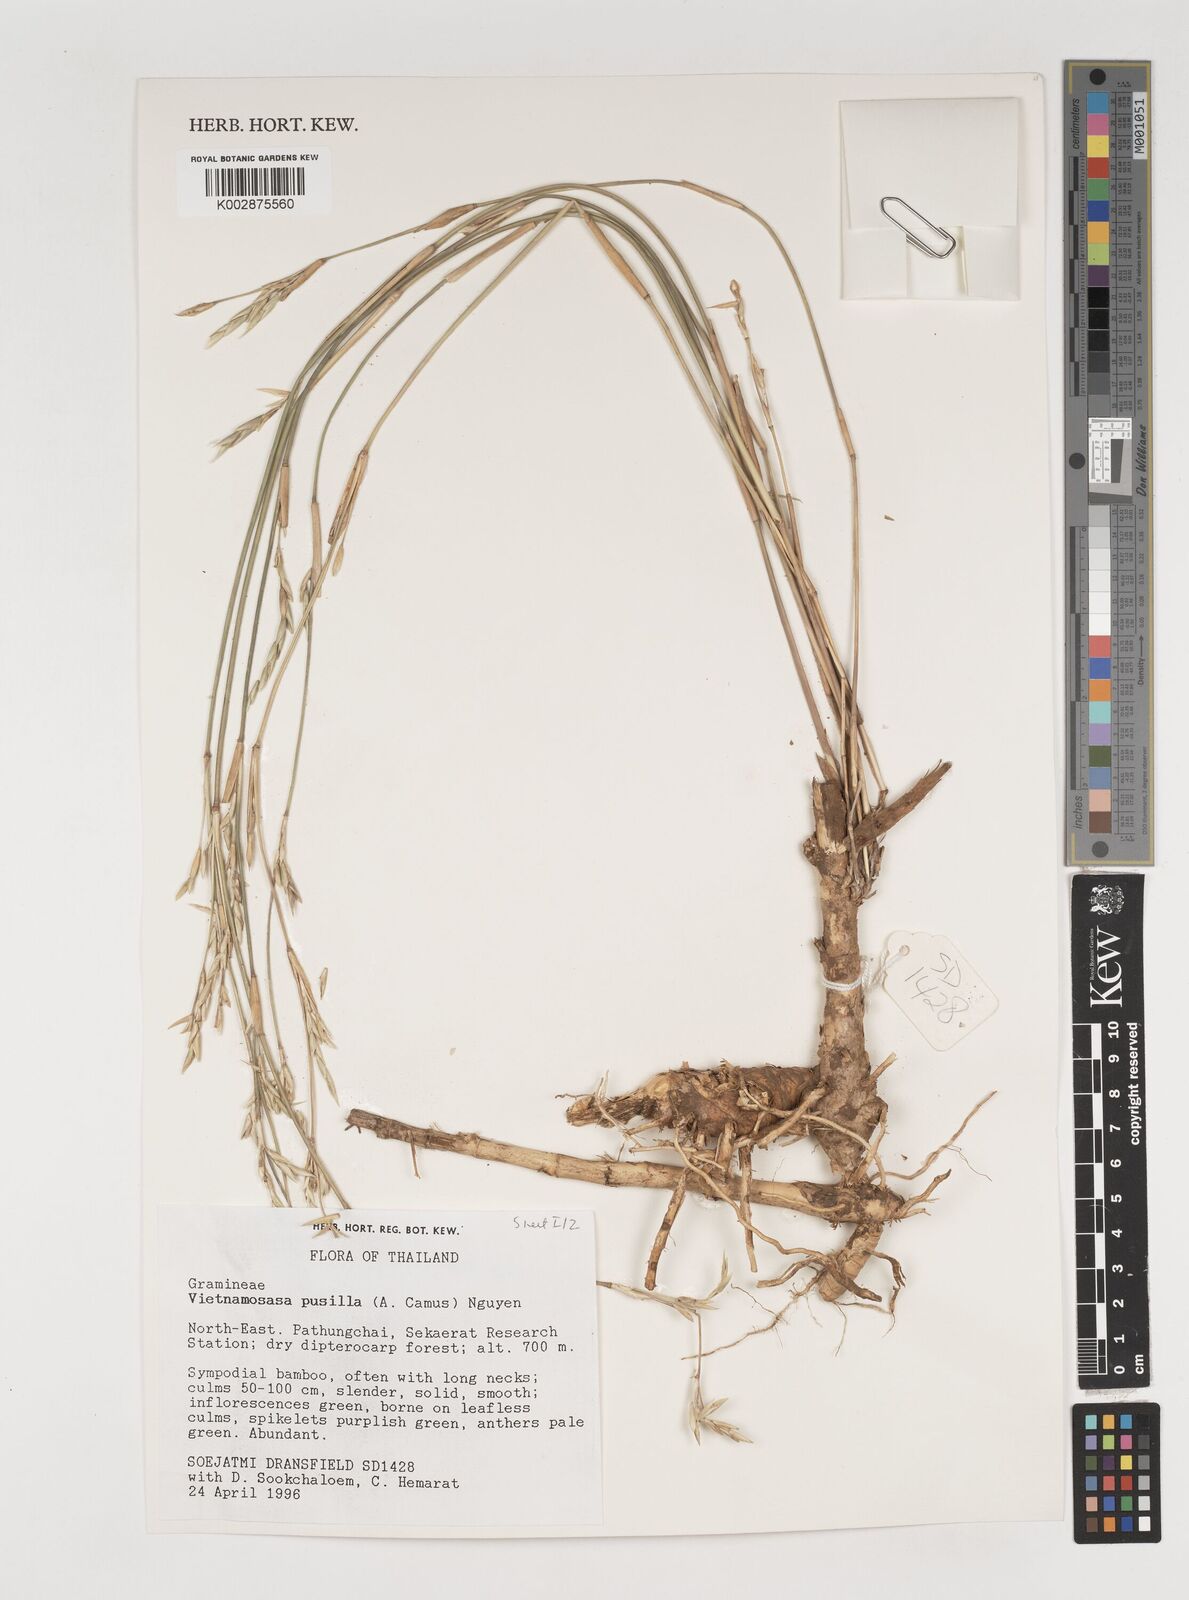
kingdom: Plantae
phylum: Tracheophyta
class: Liliopsida
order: Poales
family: Poaceae
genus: Vietnamosasa
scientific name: Vietnamosasa pusilla
